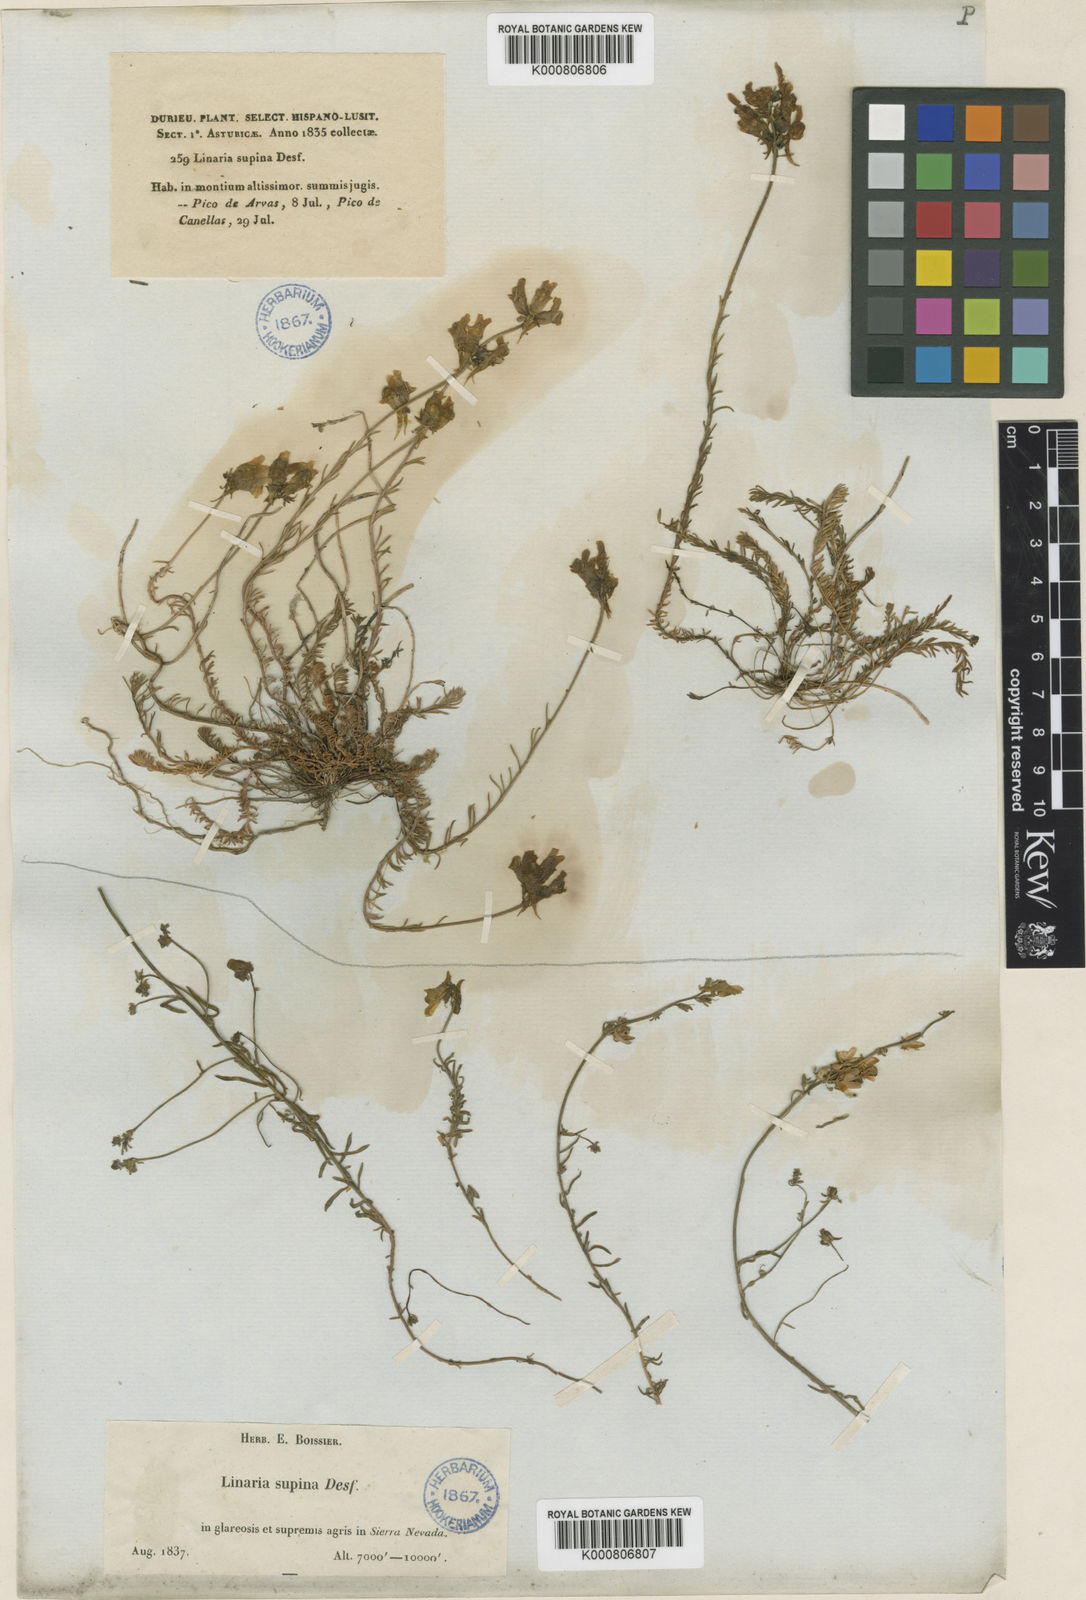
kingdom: Plantae
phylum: Tracheophyta
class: Magnoliopsida
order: Lamiales
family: Plantaginaceae
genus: Linaria
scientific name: Linaria aeruginea
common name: Roadside toadflax
